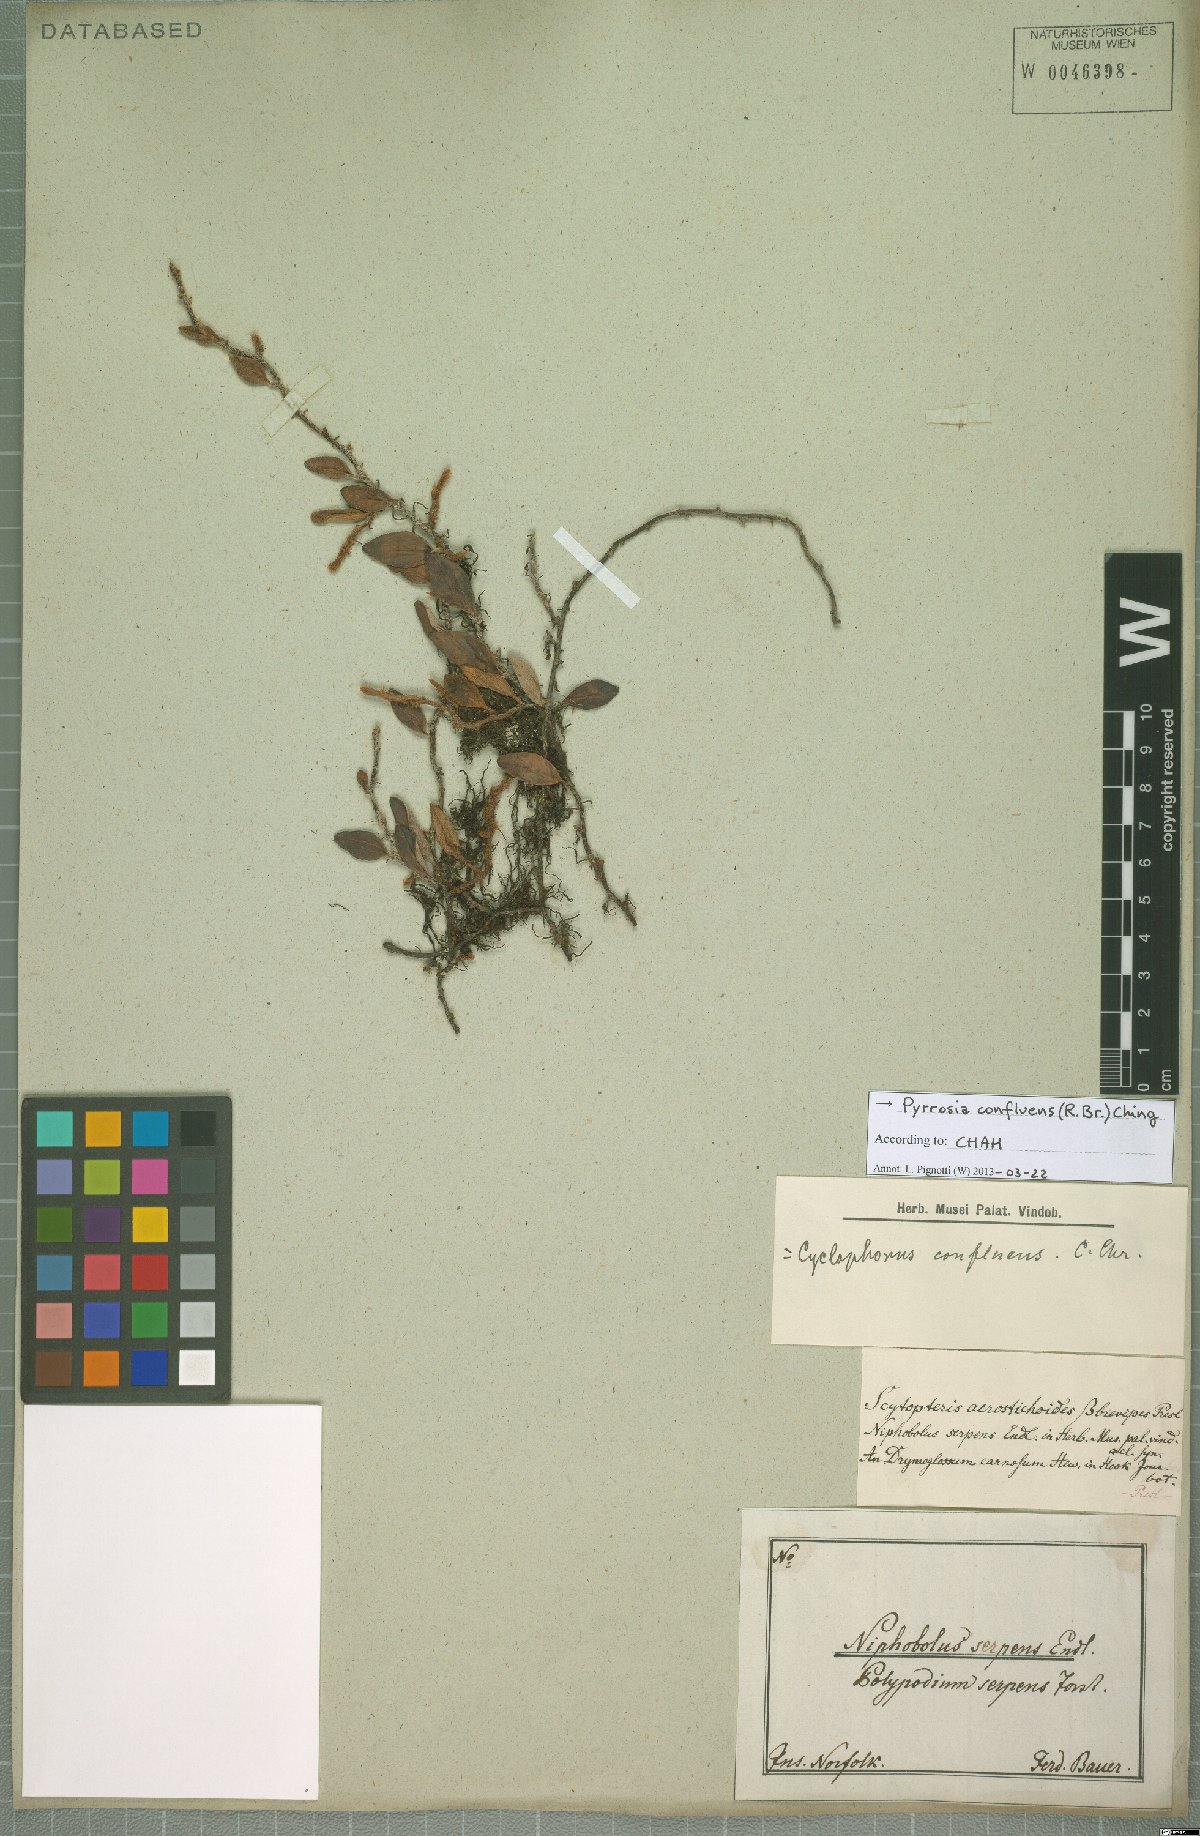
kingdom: Plantae
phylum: Tracheophyta
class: Polypodiopsida
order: Polypodiales
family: Polypodiaceae
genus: Pyrrosia
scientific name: Pyrrosia confluens
